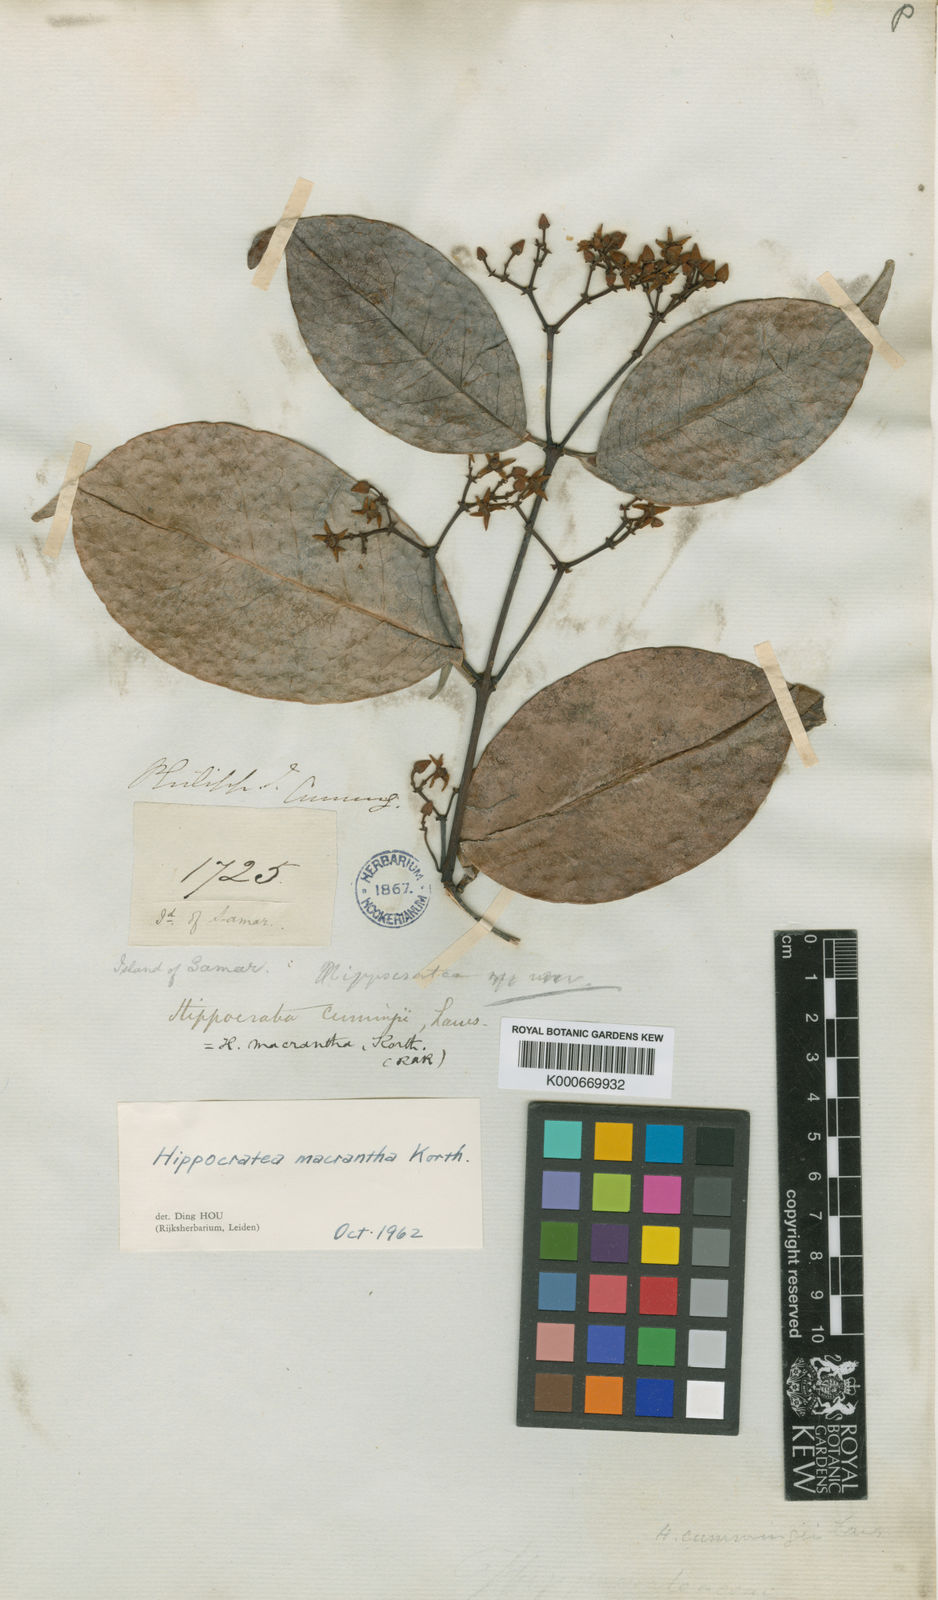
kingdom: Plantae
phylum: Tracheophyta
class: Magnoliopsida
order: Celastrales
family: Celastraceae
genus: Loeseneriella
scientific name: Loeseneriella macrantha
